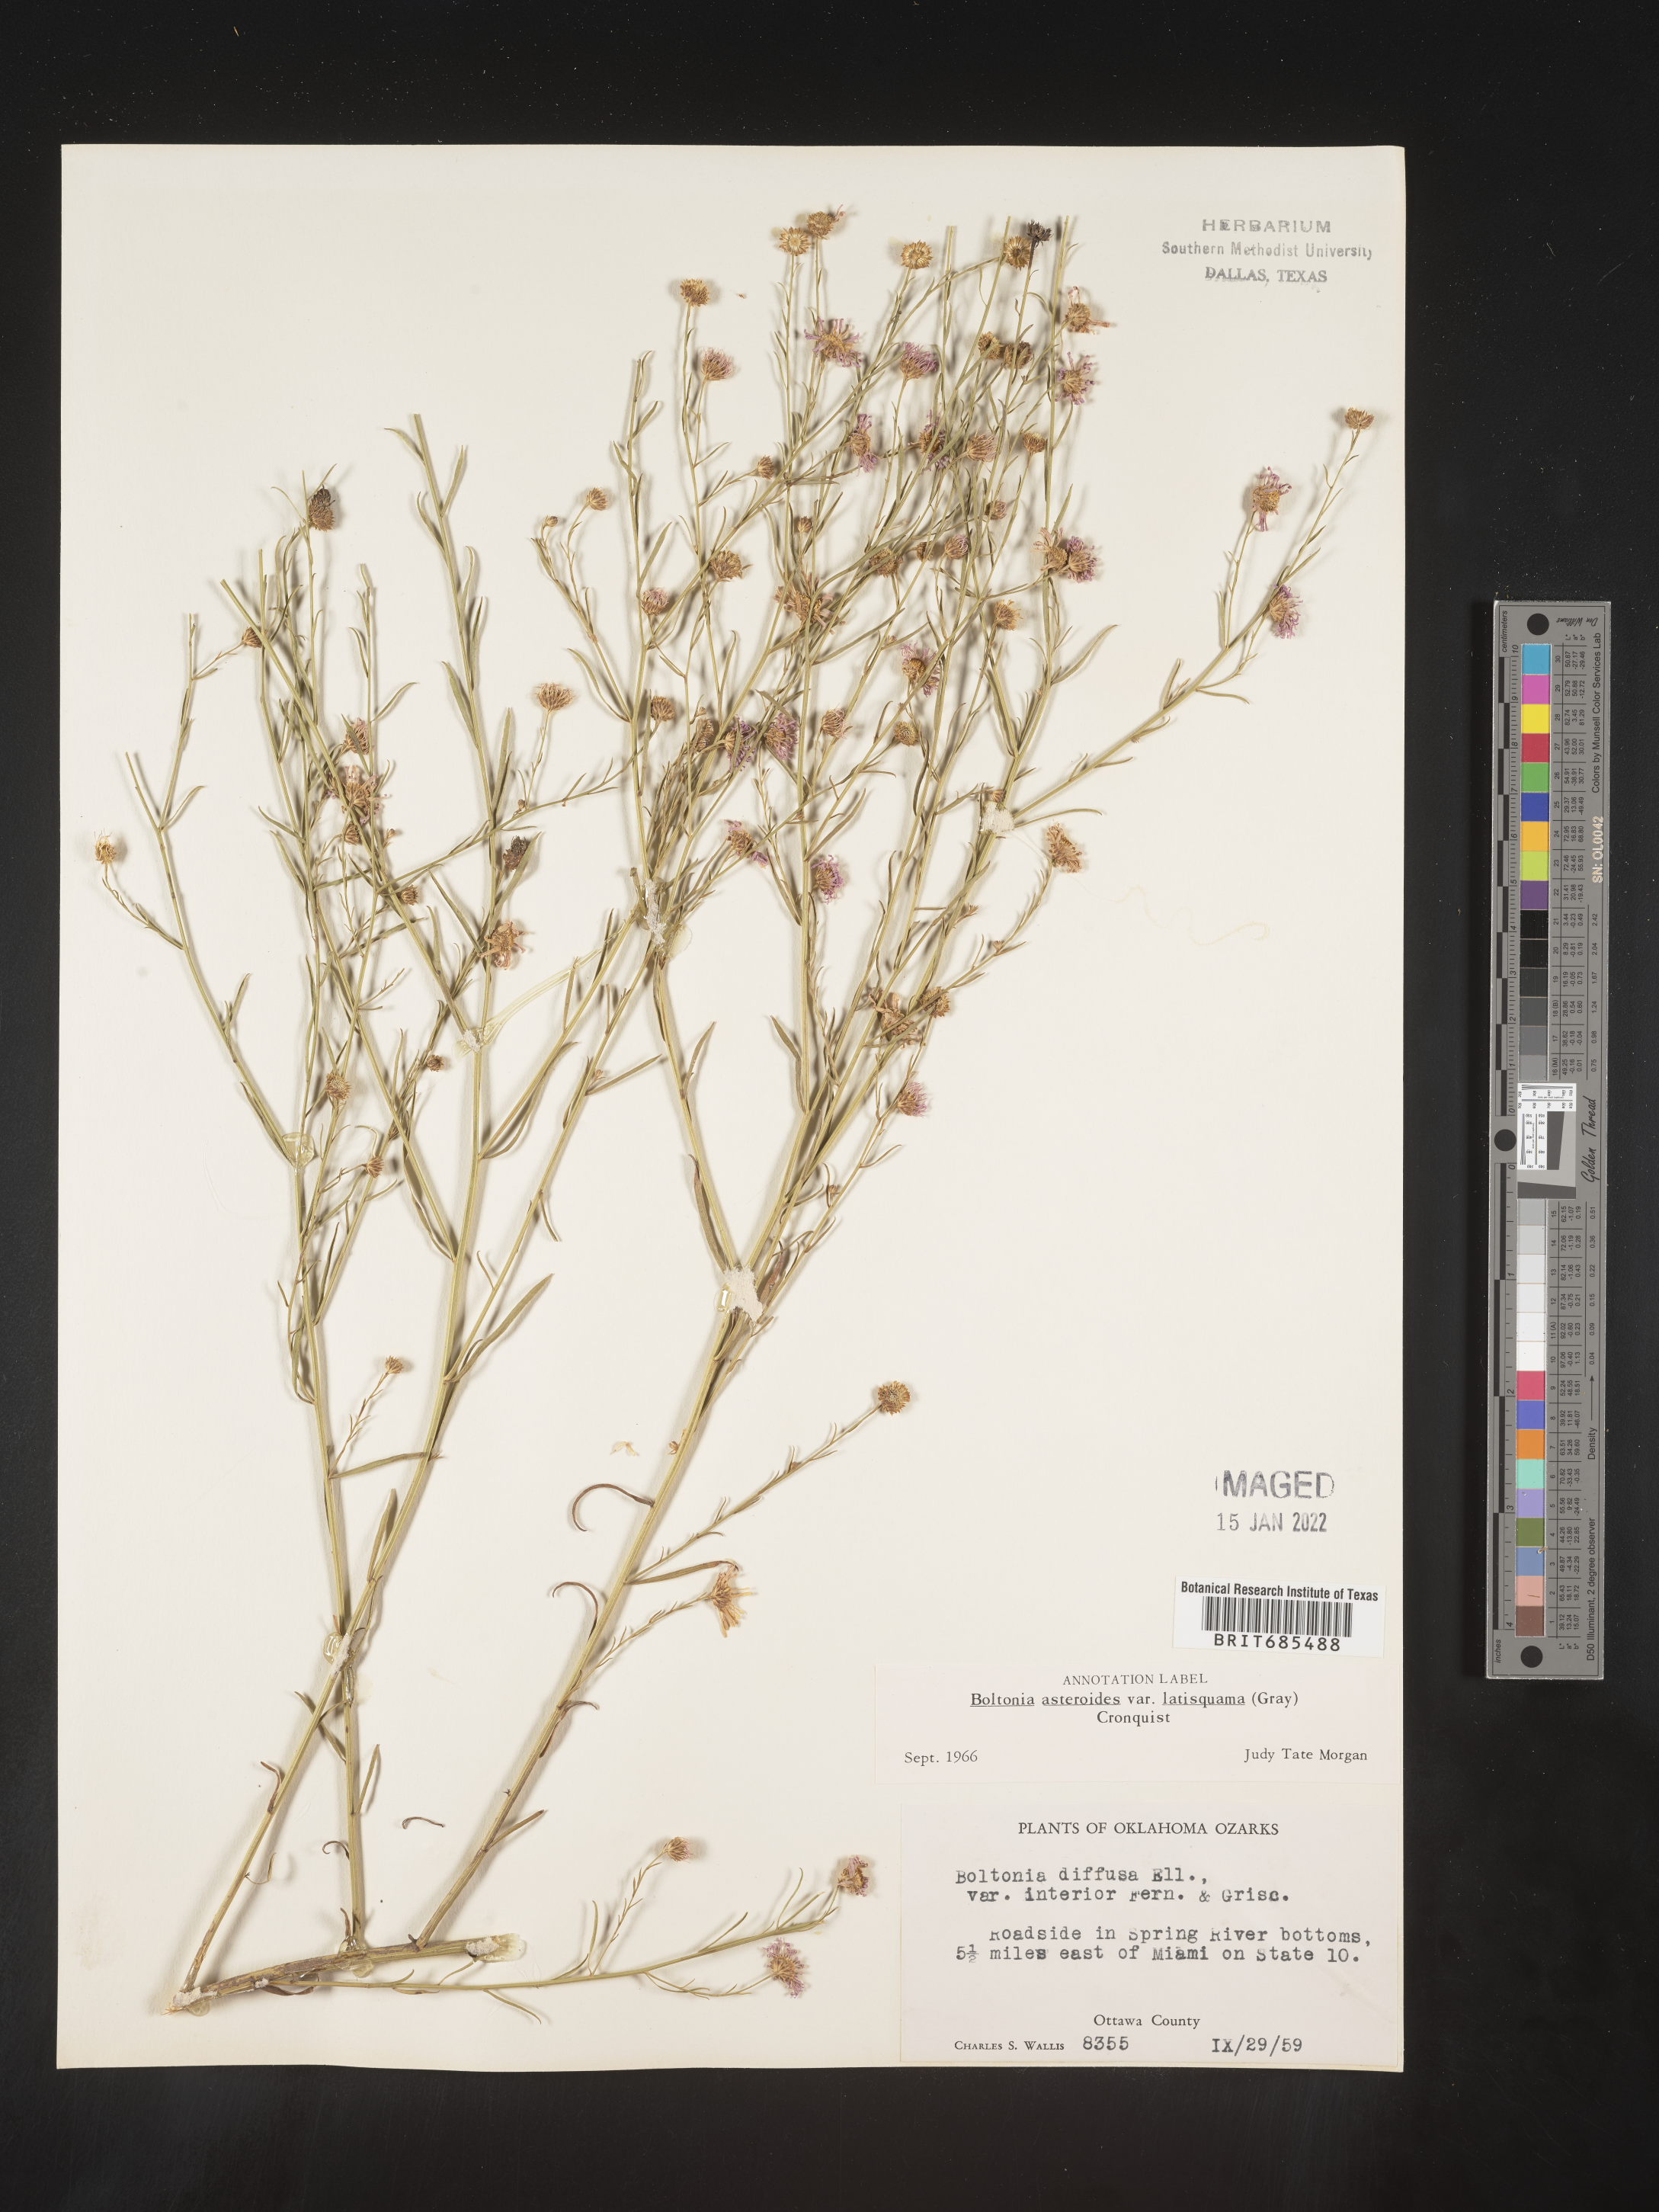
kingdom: Plantae
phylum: Tracheophyta
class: Magnoliopsida
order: Asterales
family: Asteraceae
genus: Boltonia
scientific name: Boltonia asteroides
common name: False chamomile
